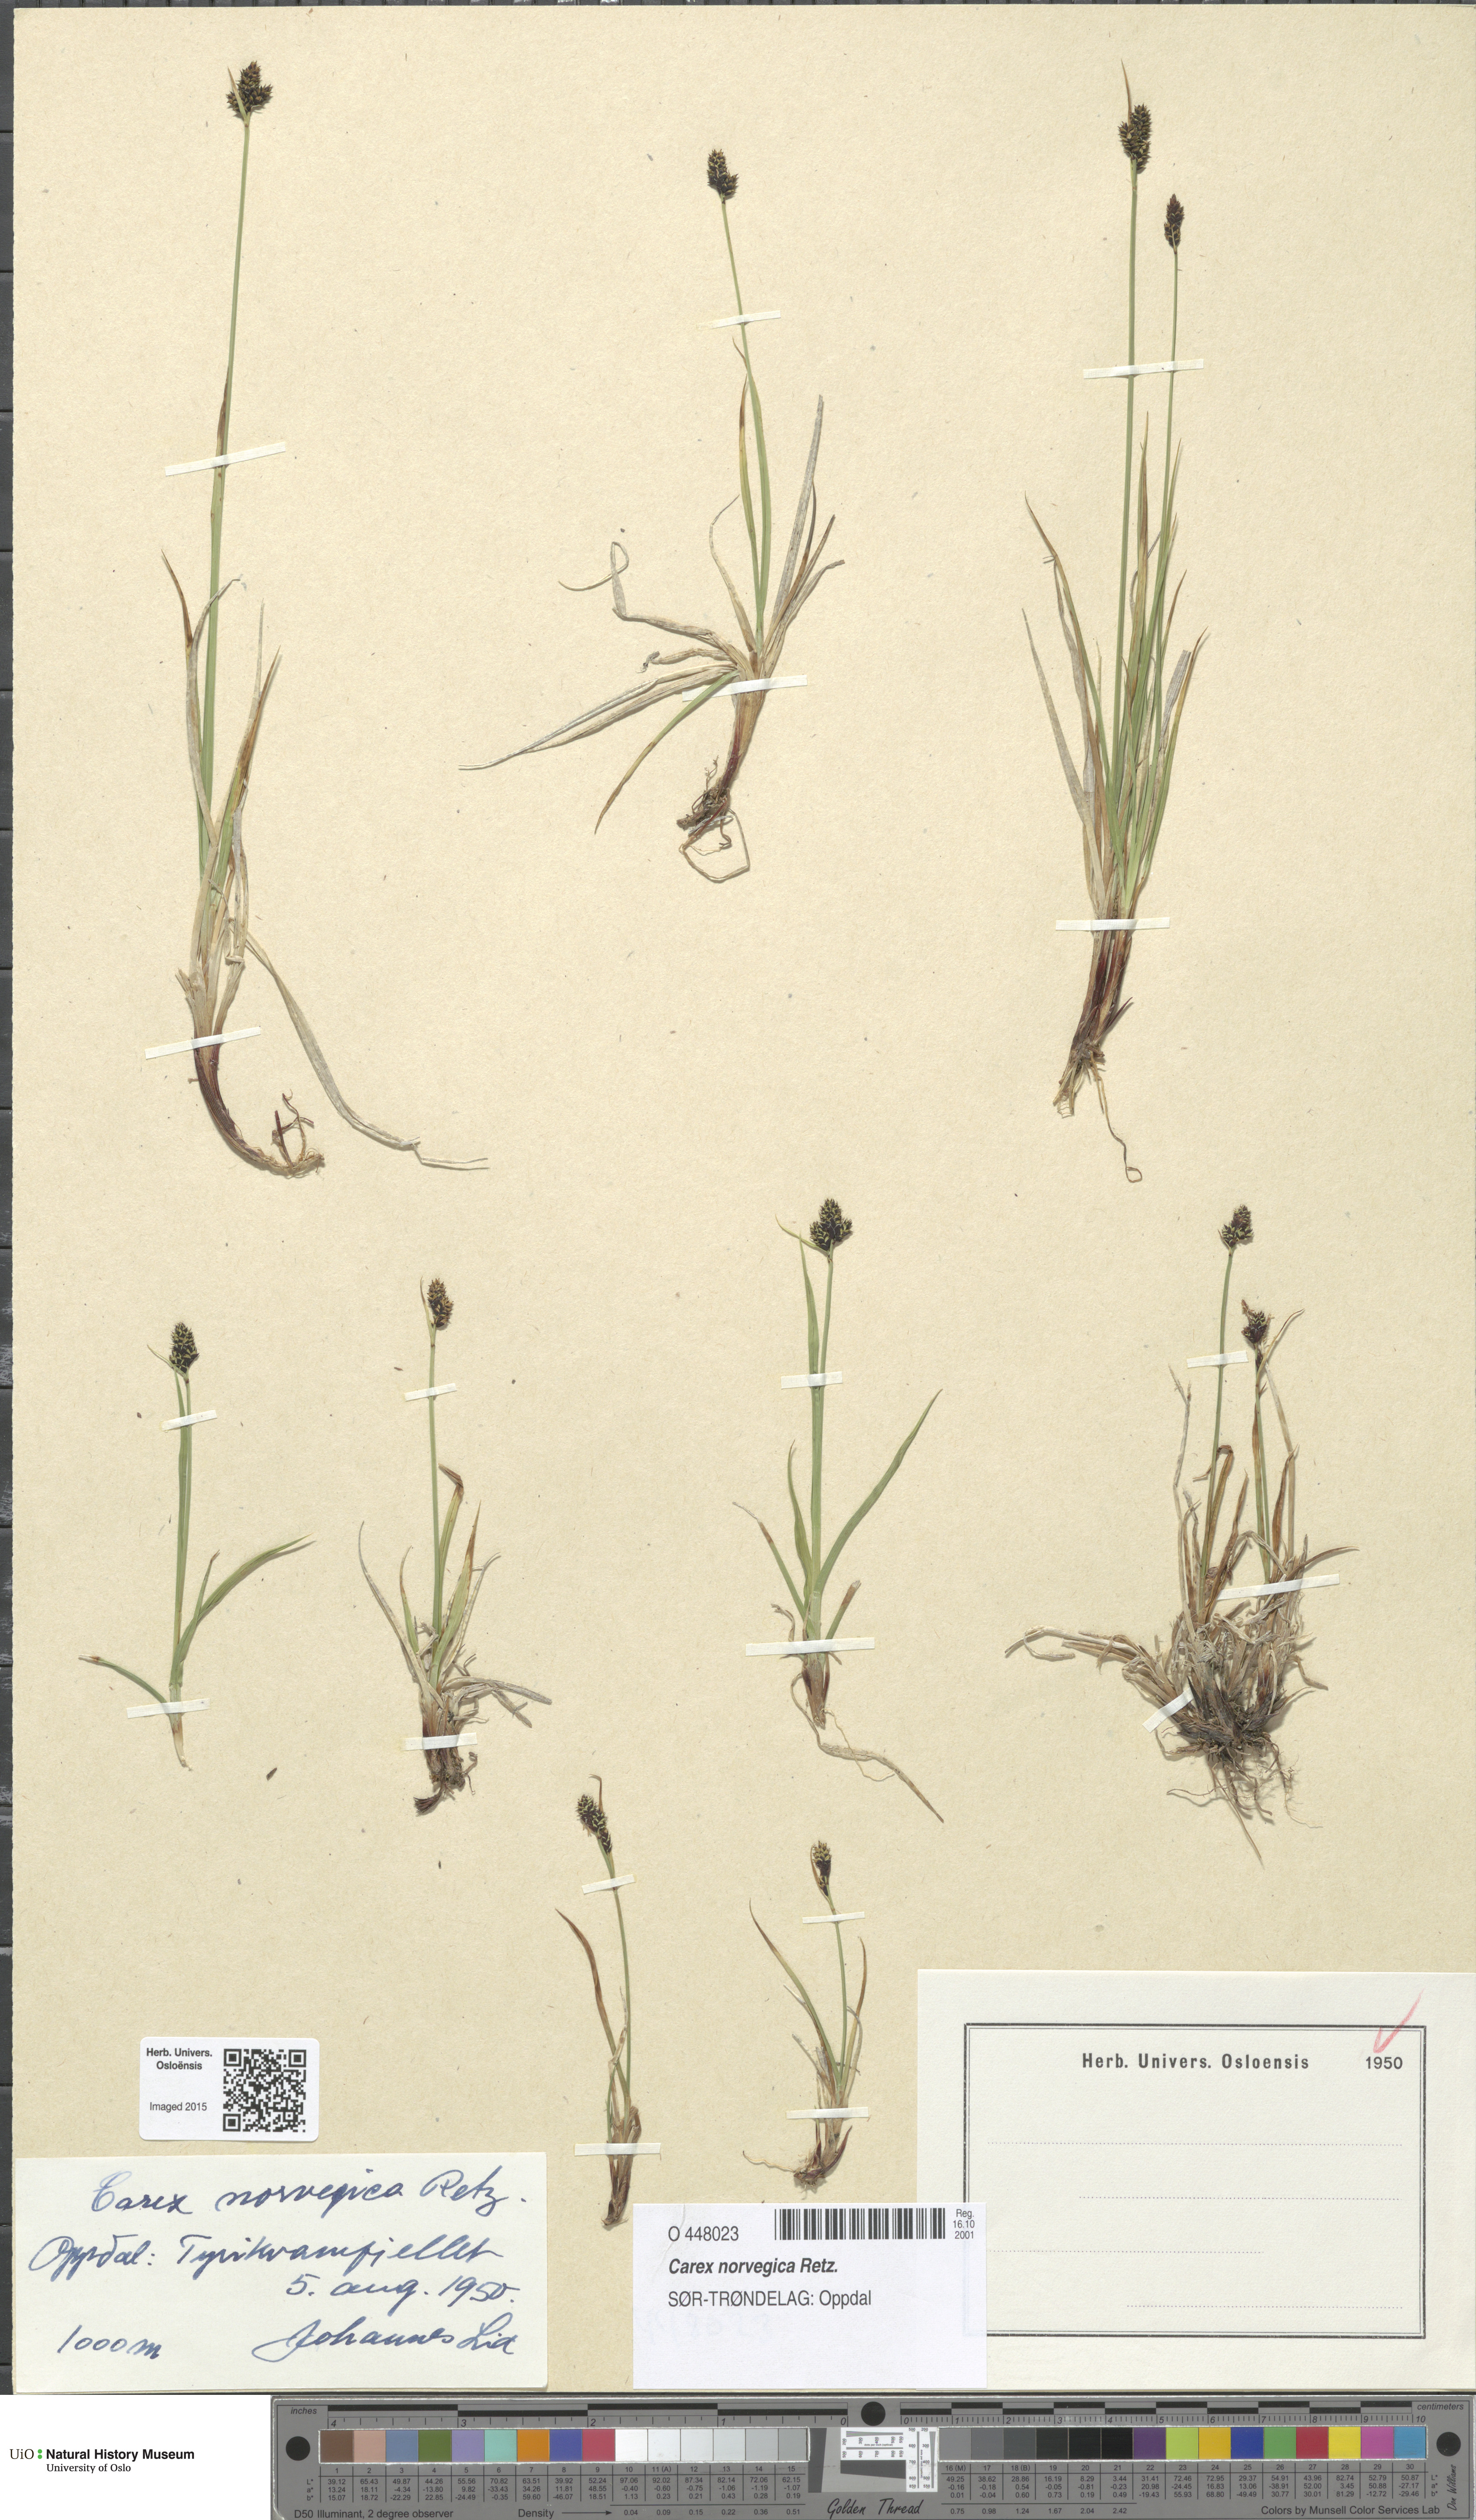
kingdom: Plantae
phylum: Tracheophyta
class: Liliopsida
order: Poales
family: Cyperaceae
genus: Carex
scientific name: Carex norvegica
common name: Close-headed alpine-sedge
